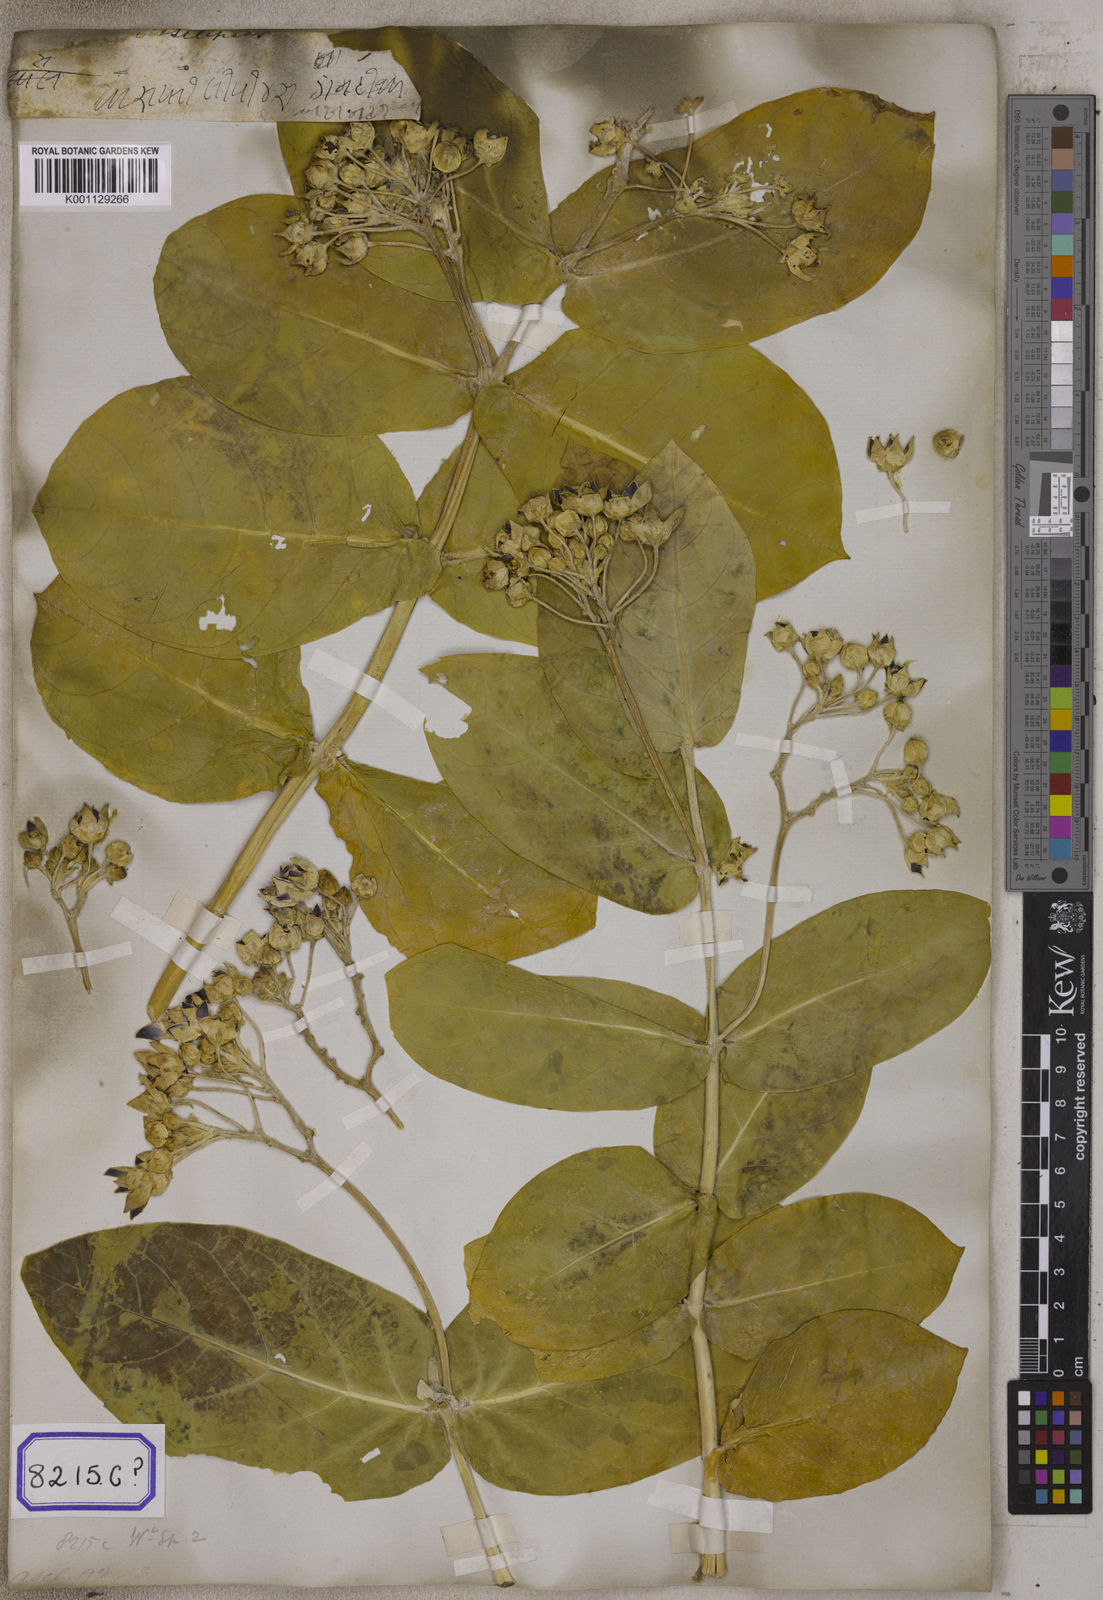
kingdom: Plantae
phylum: Tracheophyta
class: Magnoliopsida
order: Gentianales
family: Apocynaceae
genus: Calotropis
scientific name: Calotropis procera
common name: Roostertree
